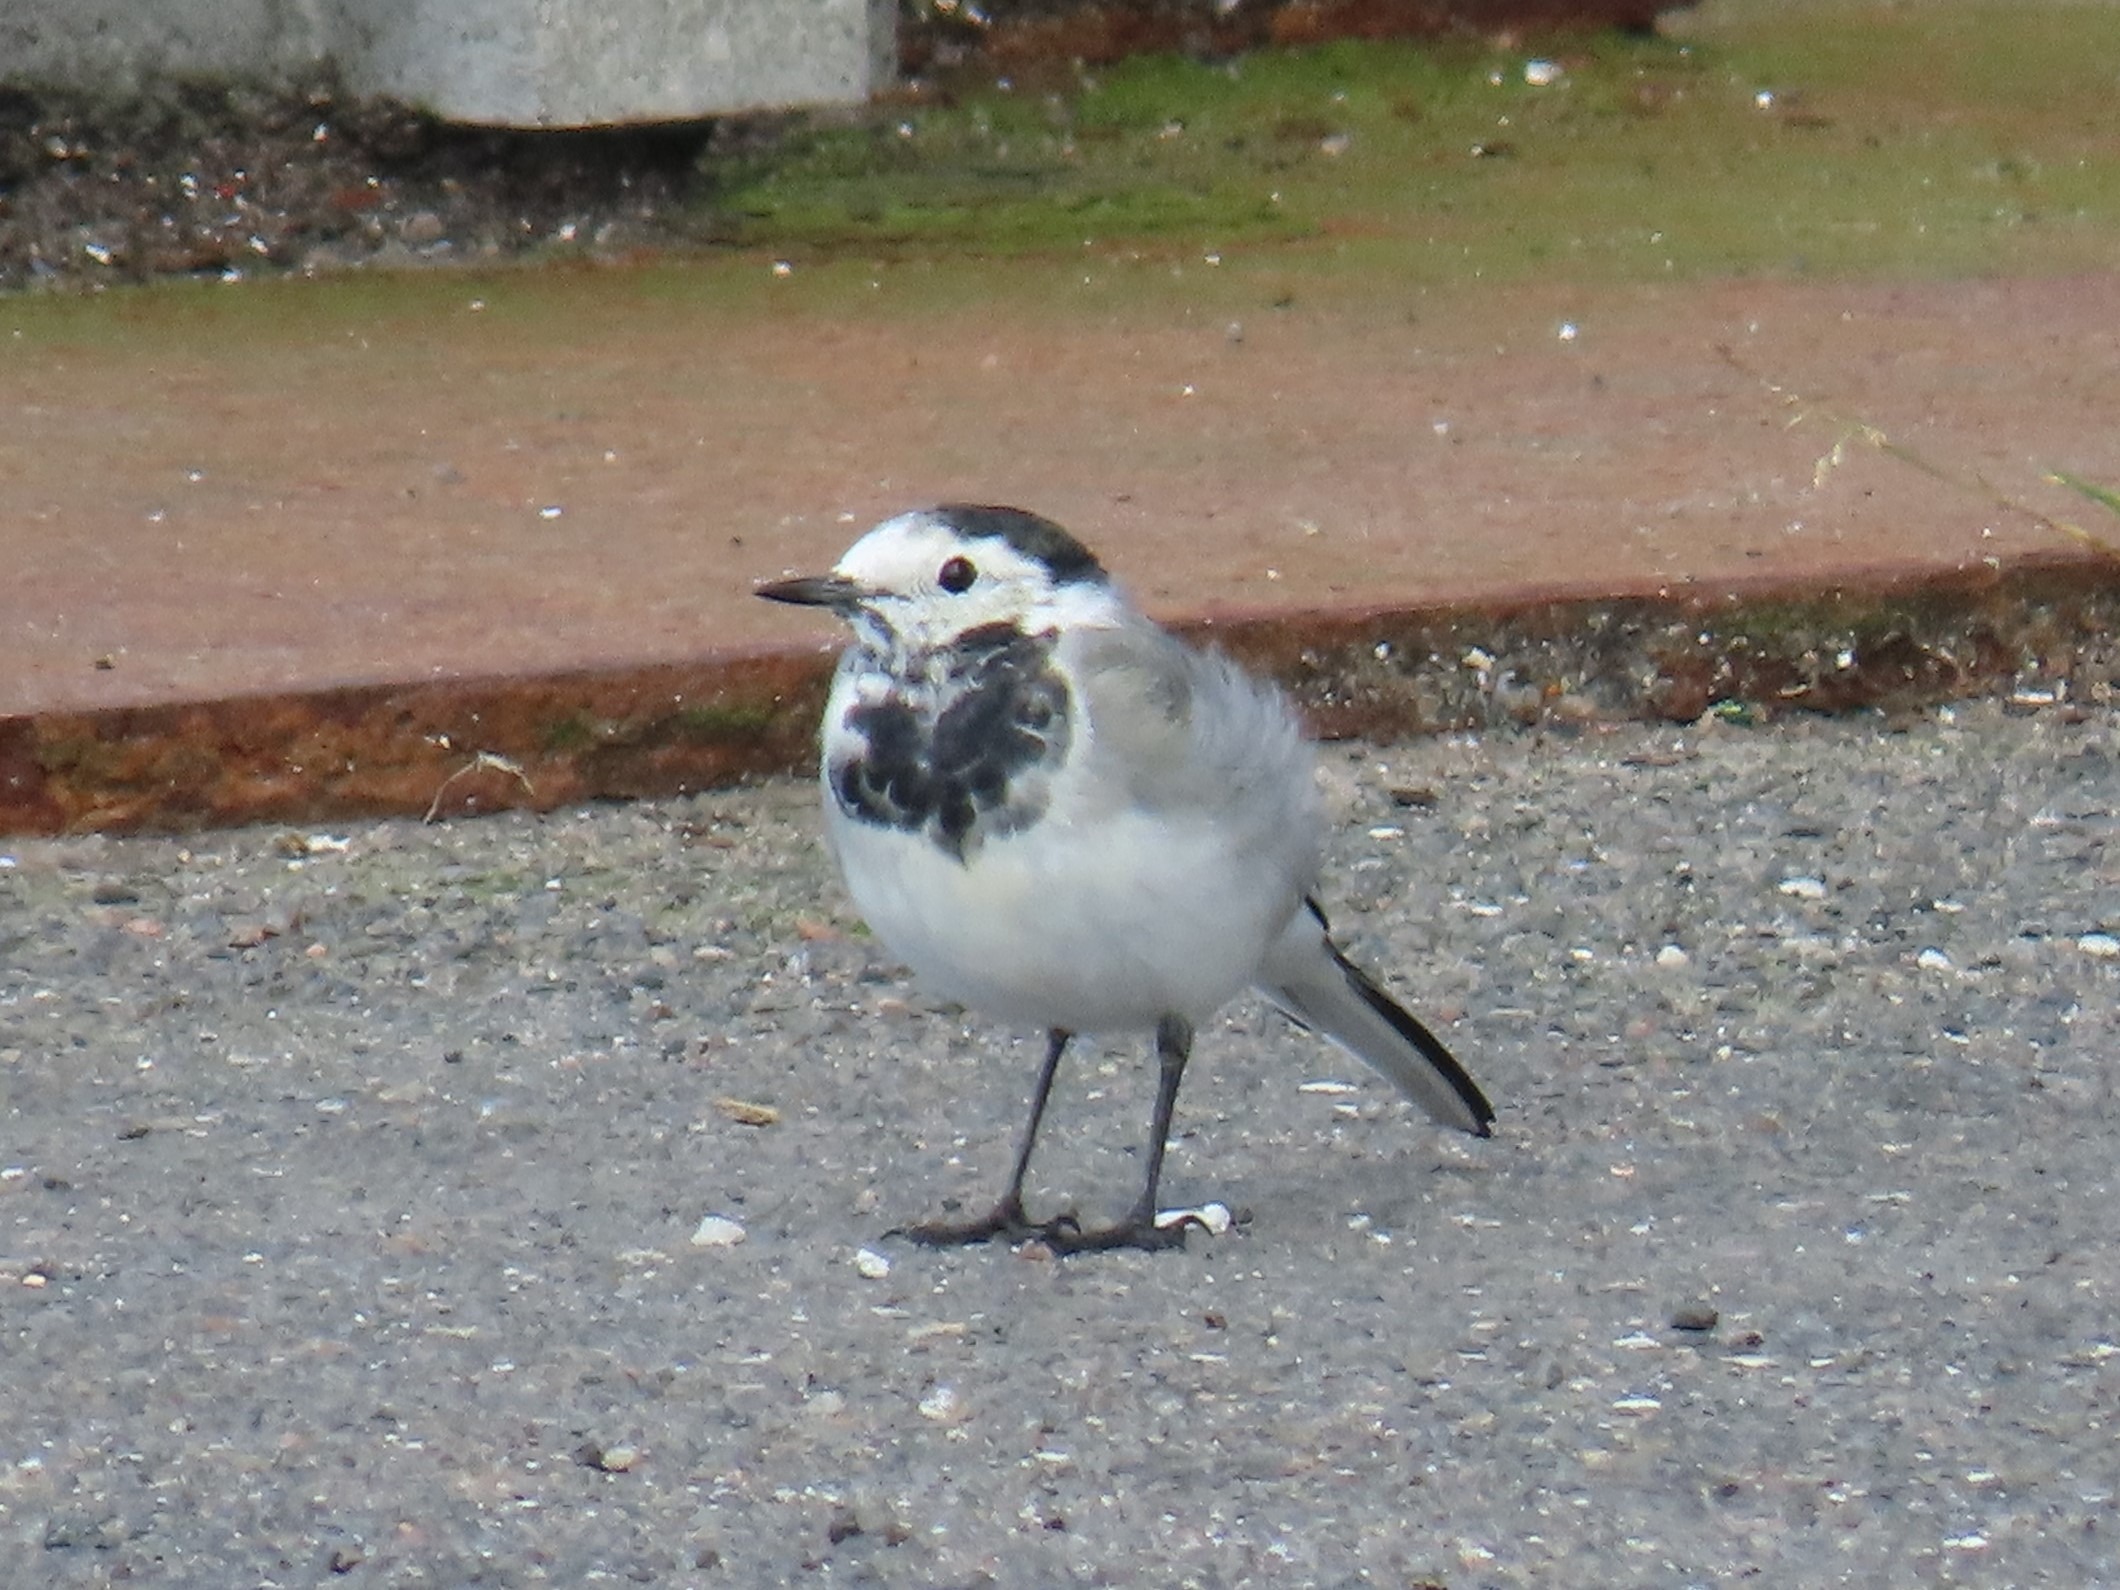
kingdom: Animalia
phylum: Chordata
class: Aves
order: Passeriformes
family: Motacillidae
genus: Motacilla
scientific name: Motacilla alba
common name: Hvid vipstjert
